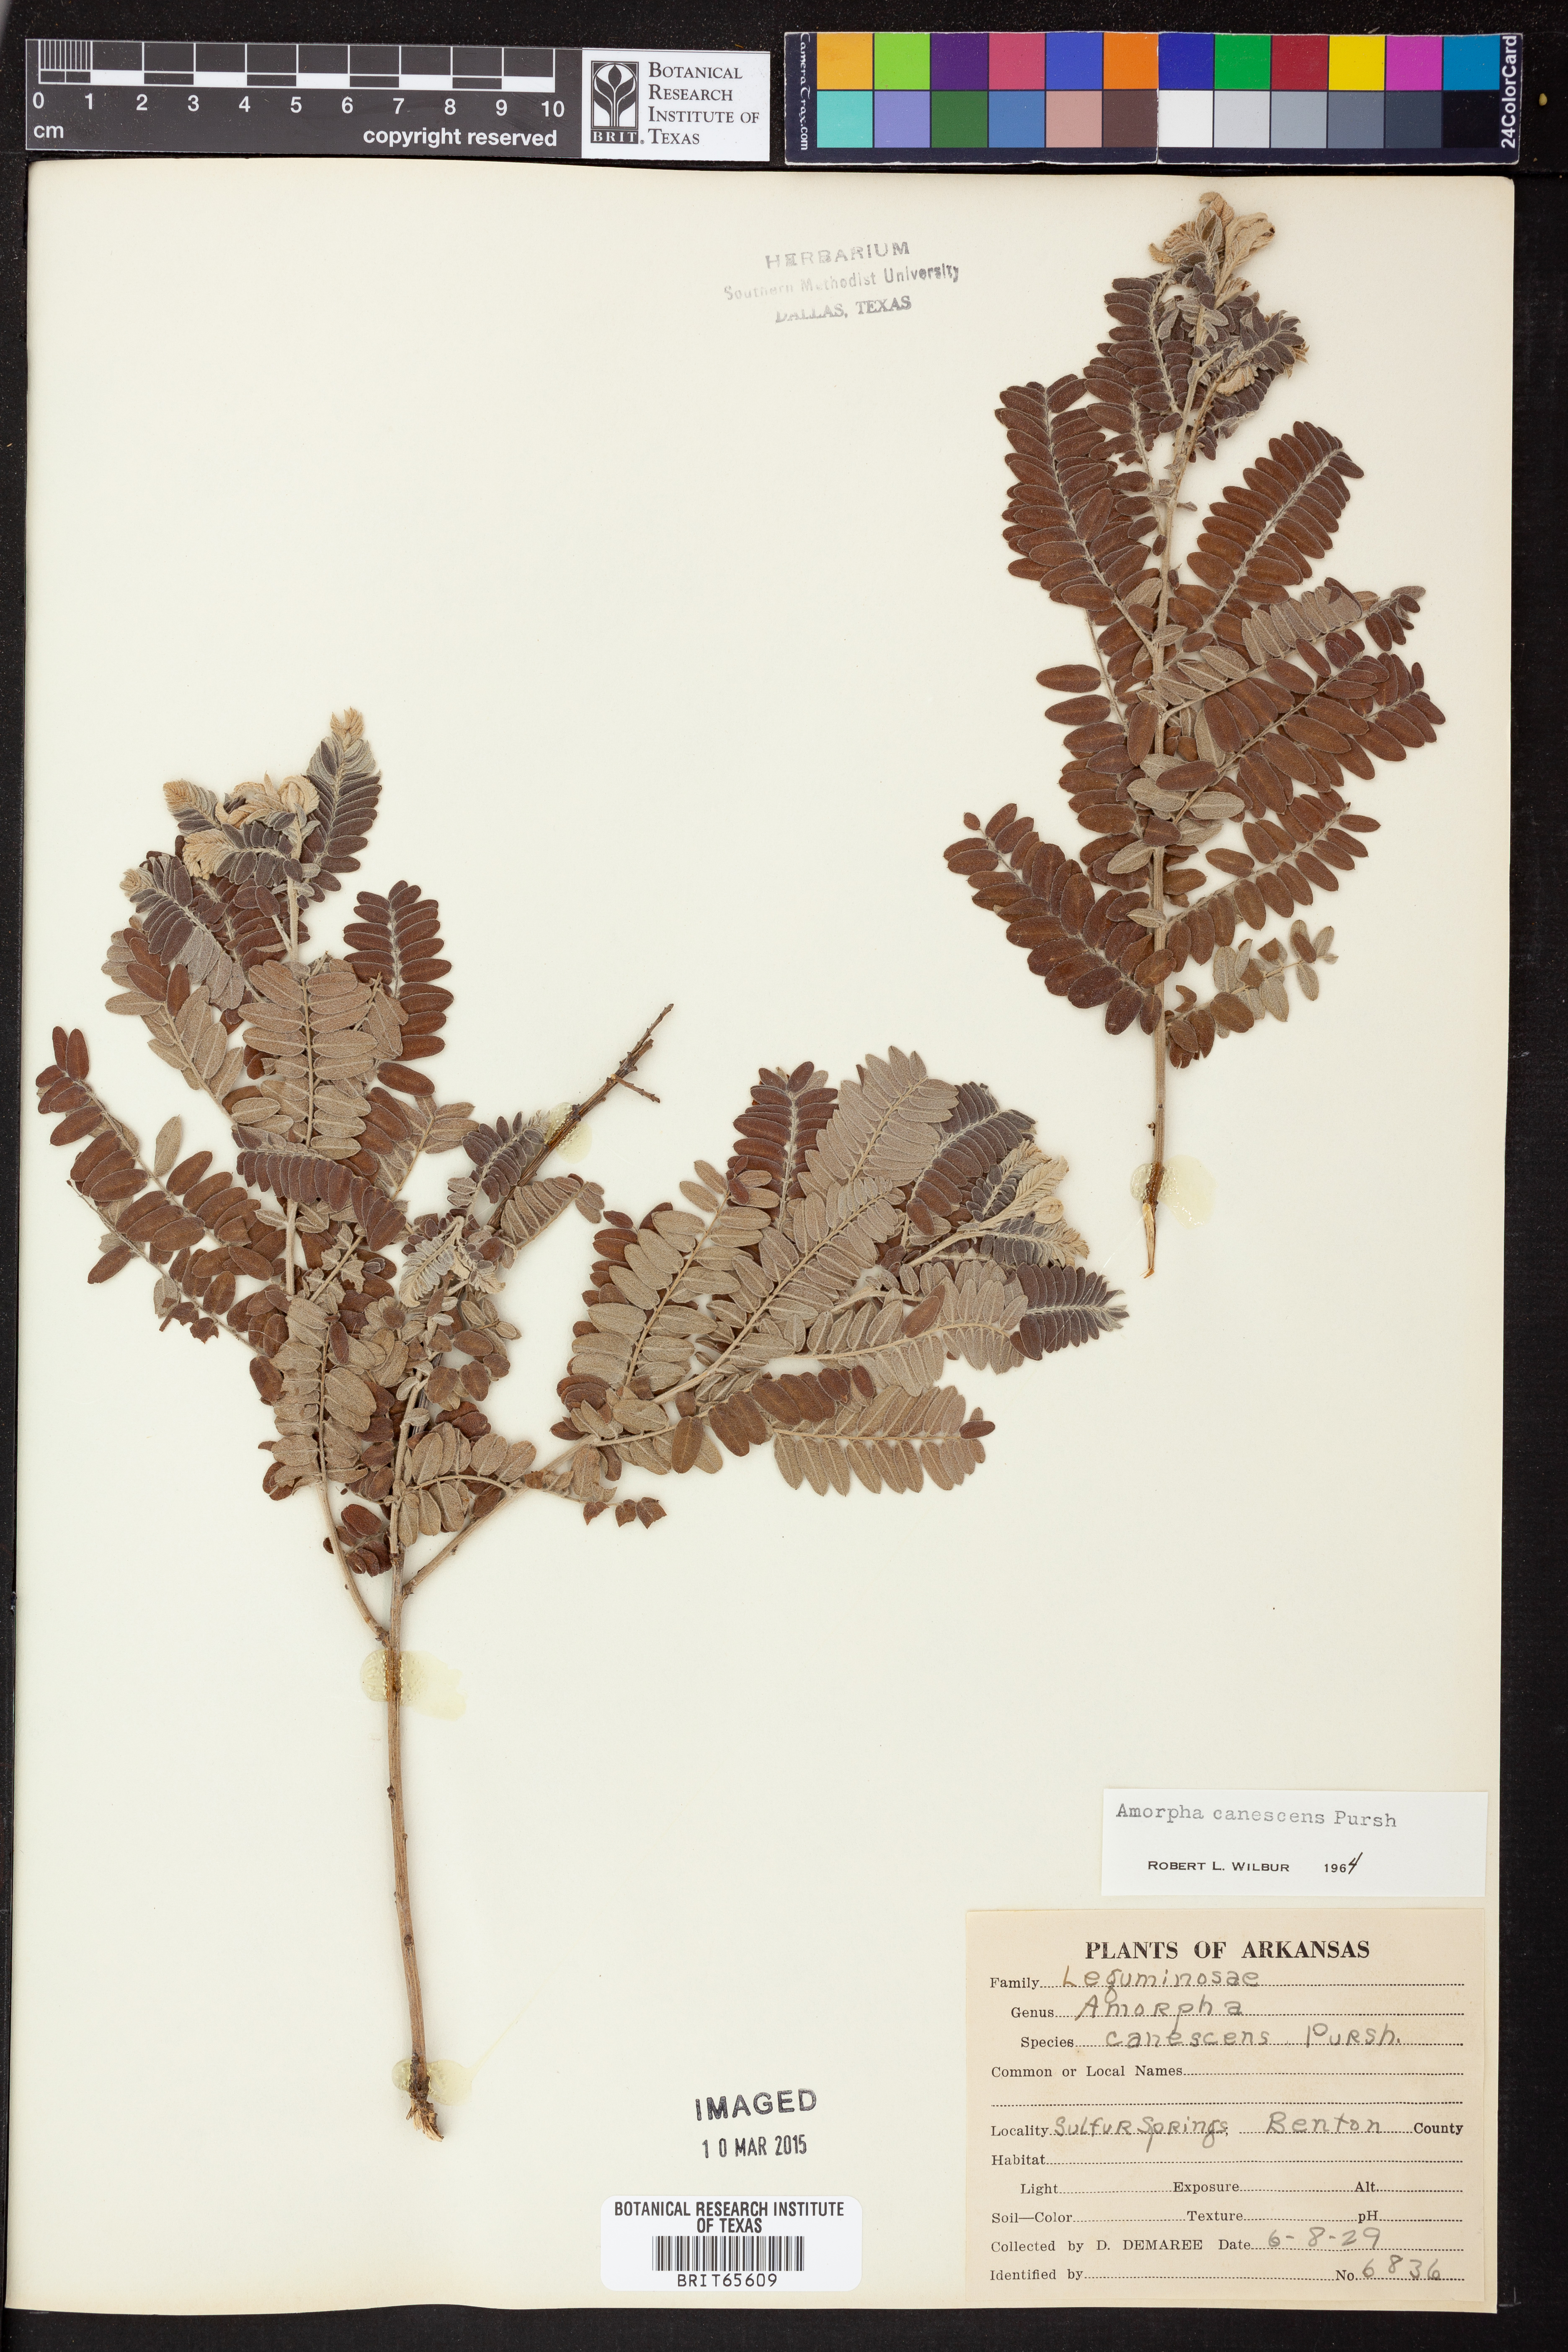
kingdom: Plantae
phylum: Tracheophyta
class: Magnoliopsida
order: Fabales
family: Fabaceae
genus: Amorpha
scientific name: Amorpha canescens
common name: Leadplant
